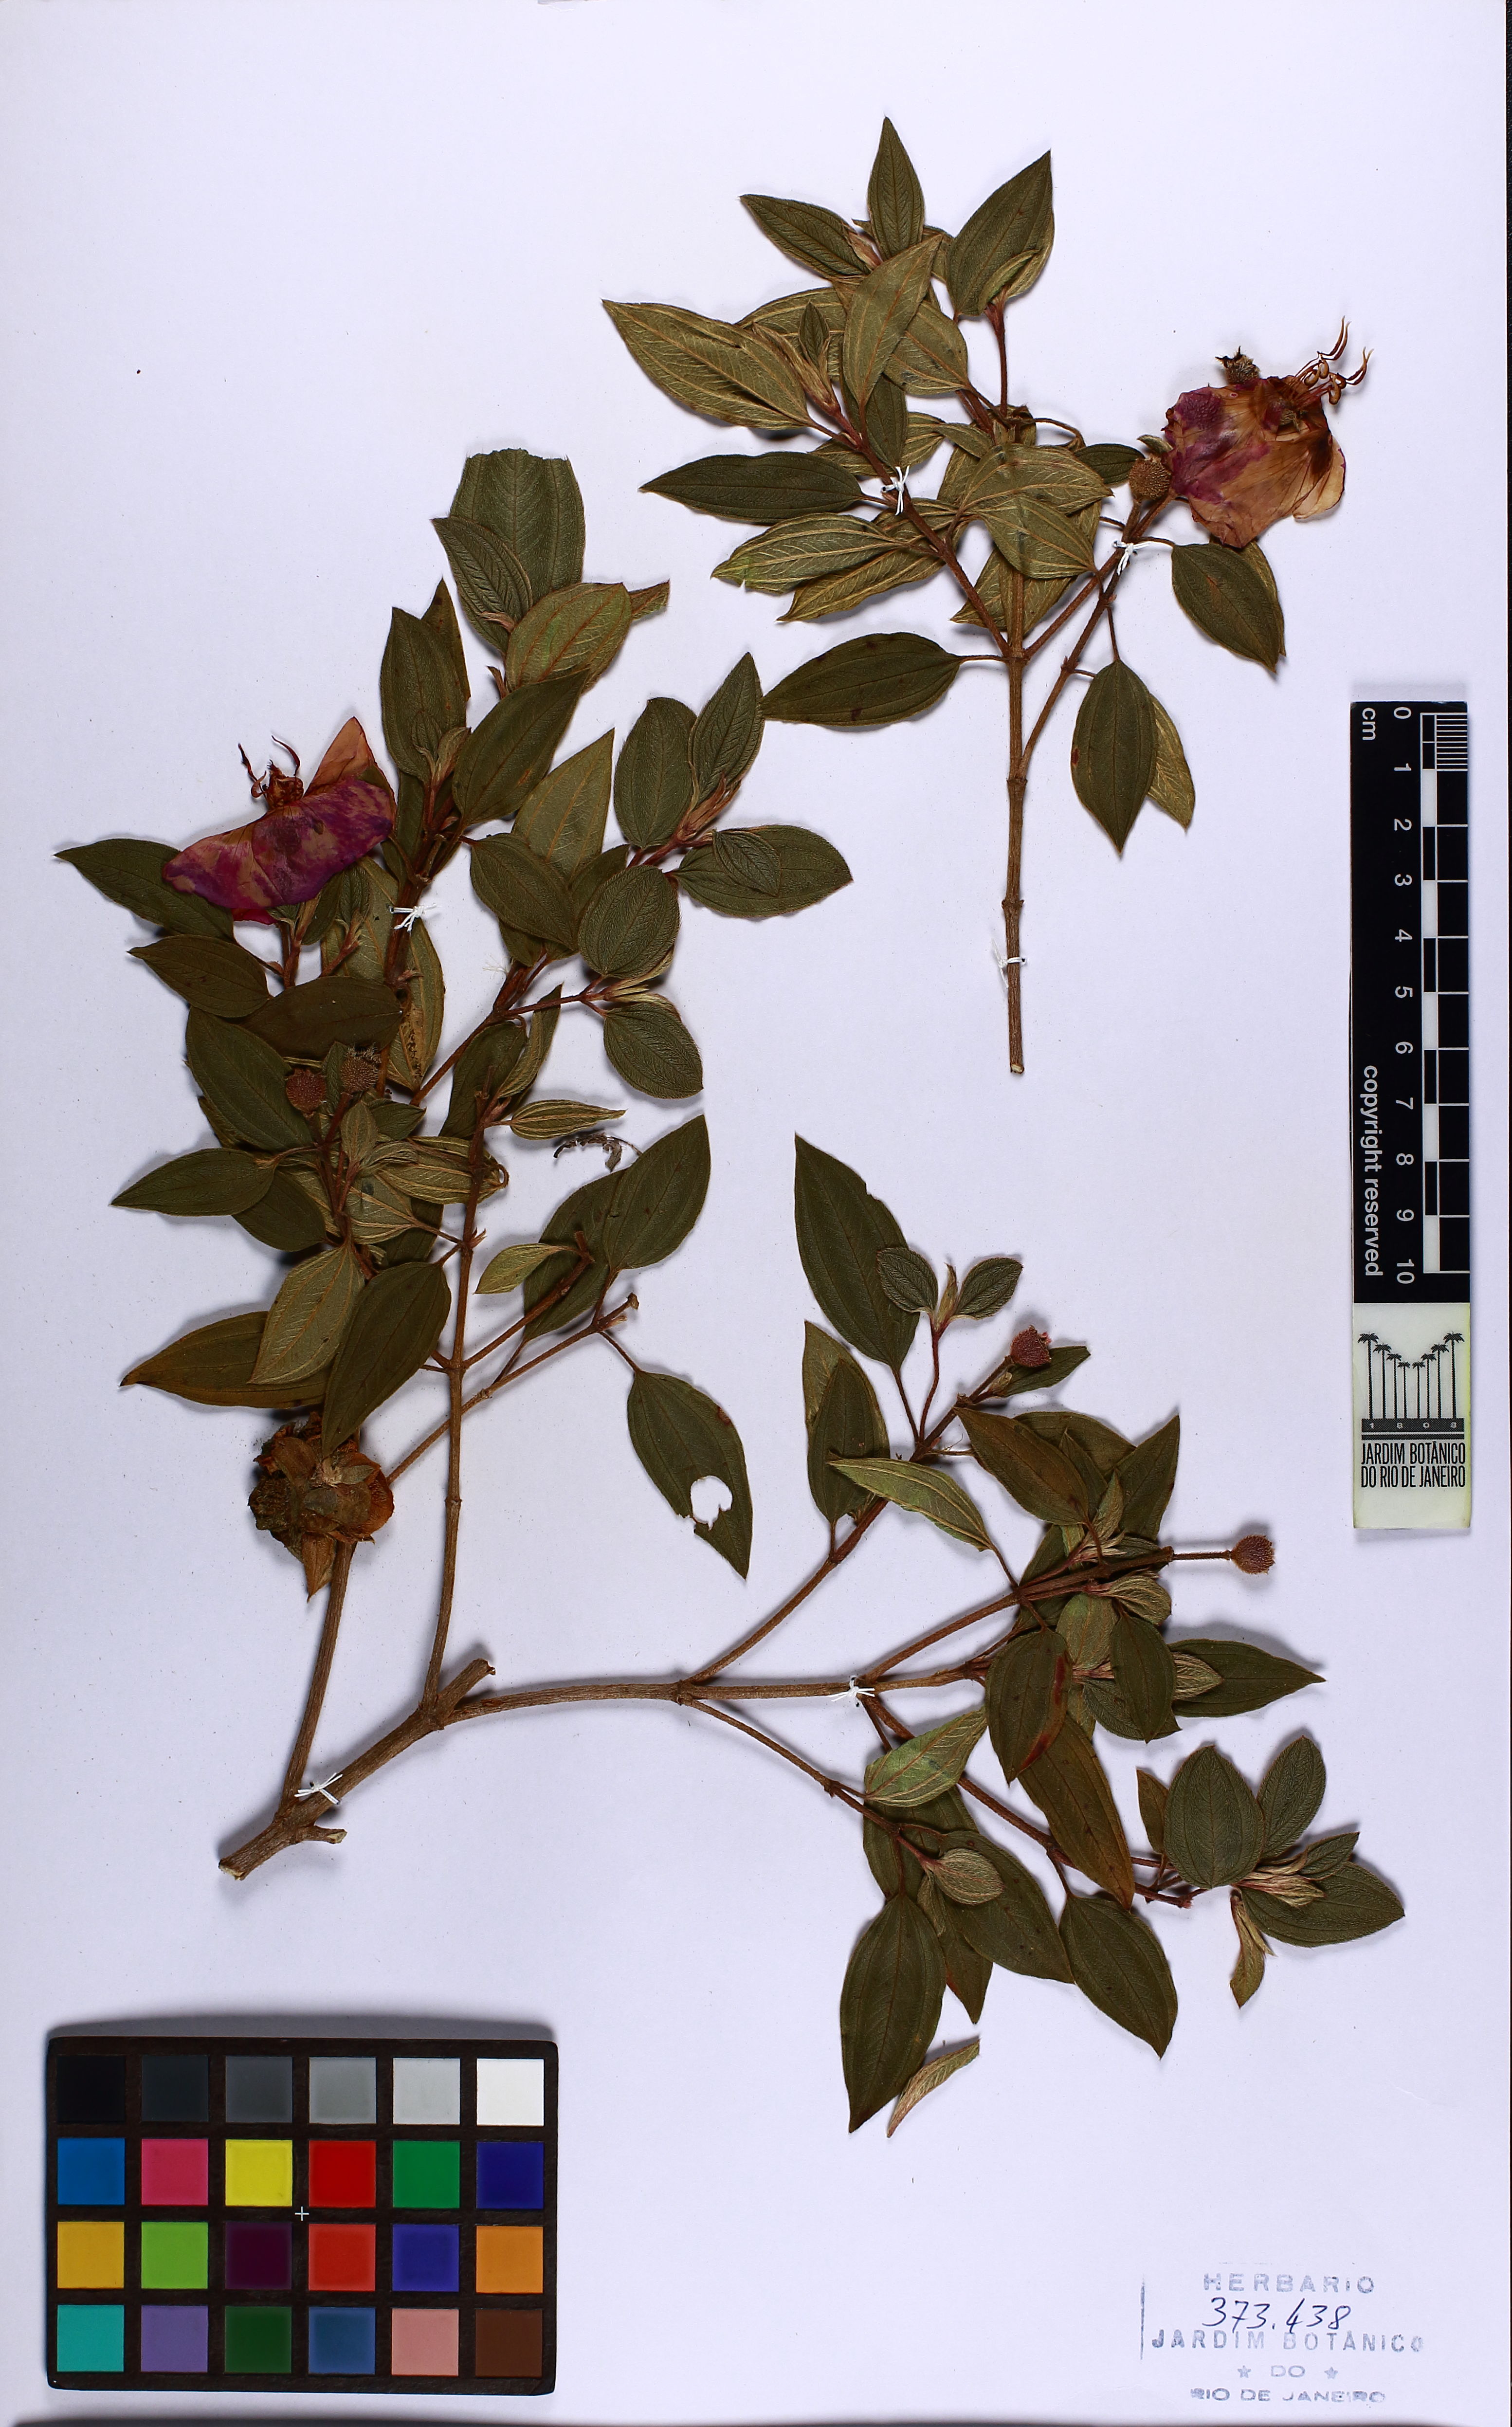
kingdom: Plantae
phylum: Tracheophyta
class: Magnoliopsida
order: Myrtales
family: Melastomataceae
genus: Pleroma
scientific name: Pleroma fothergillae
